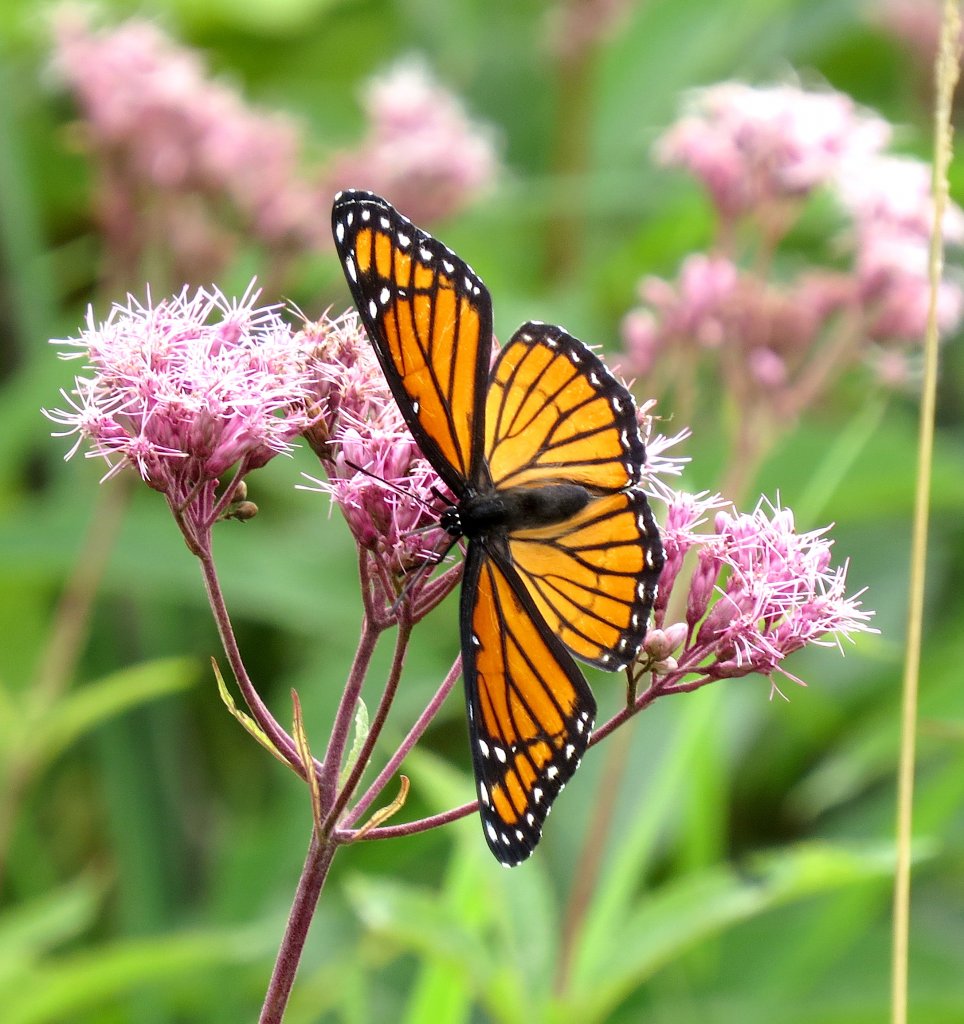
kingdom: Animalia
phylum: Arthropoda
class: Insecta
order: Lepidoptera
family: Nymphalidae
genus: Limenitis
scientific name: Limenitis archippus
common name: Viceroy
